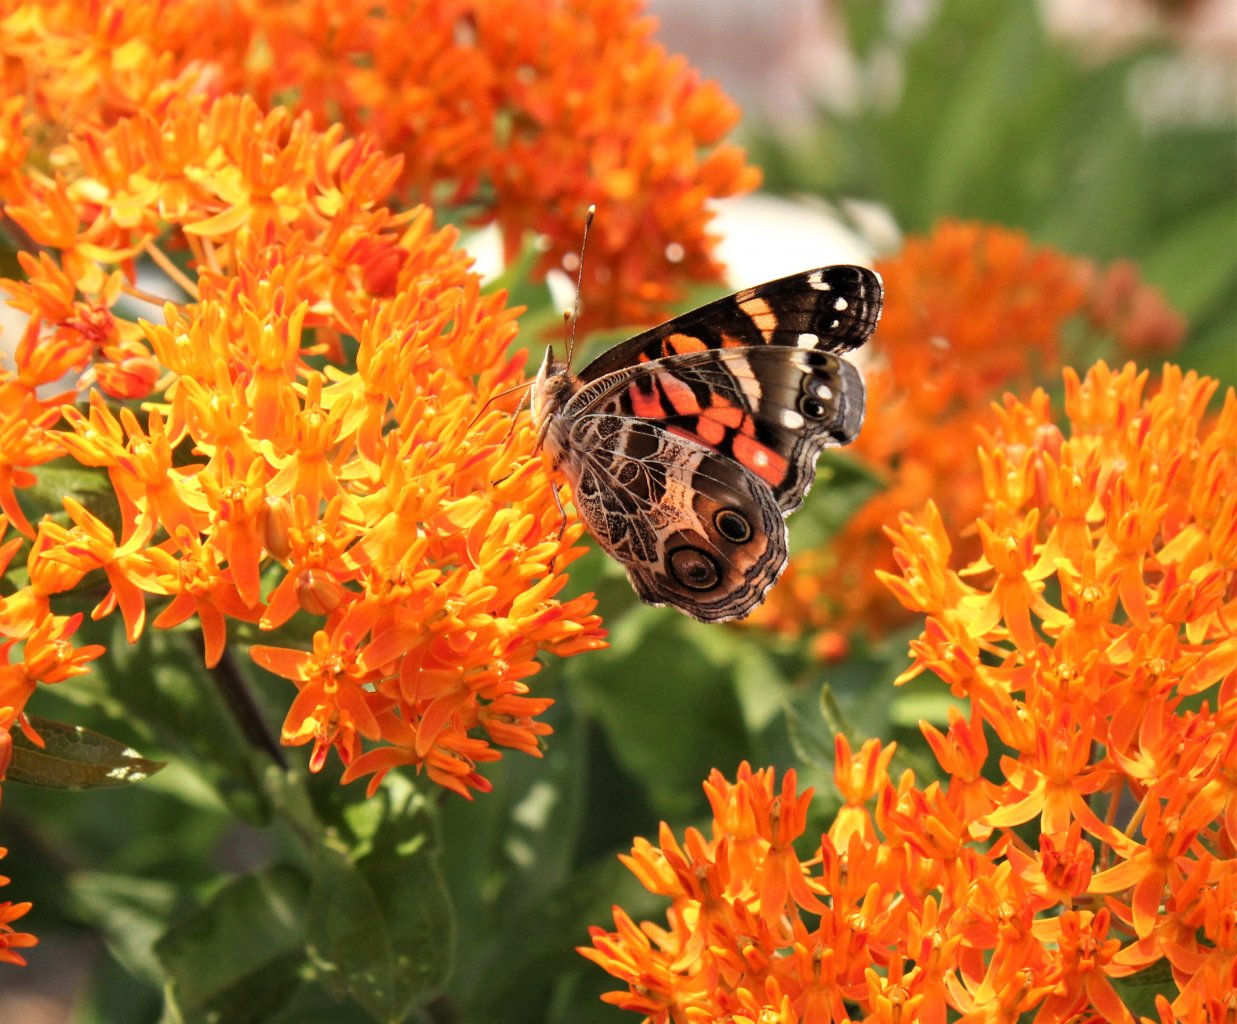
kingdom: Animalia
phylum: Arthropoda
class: Insecta
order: Lepidoptera
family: Nymphalidae
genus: Vanessa
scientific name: Vanessa virginiensis
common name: American Lady
